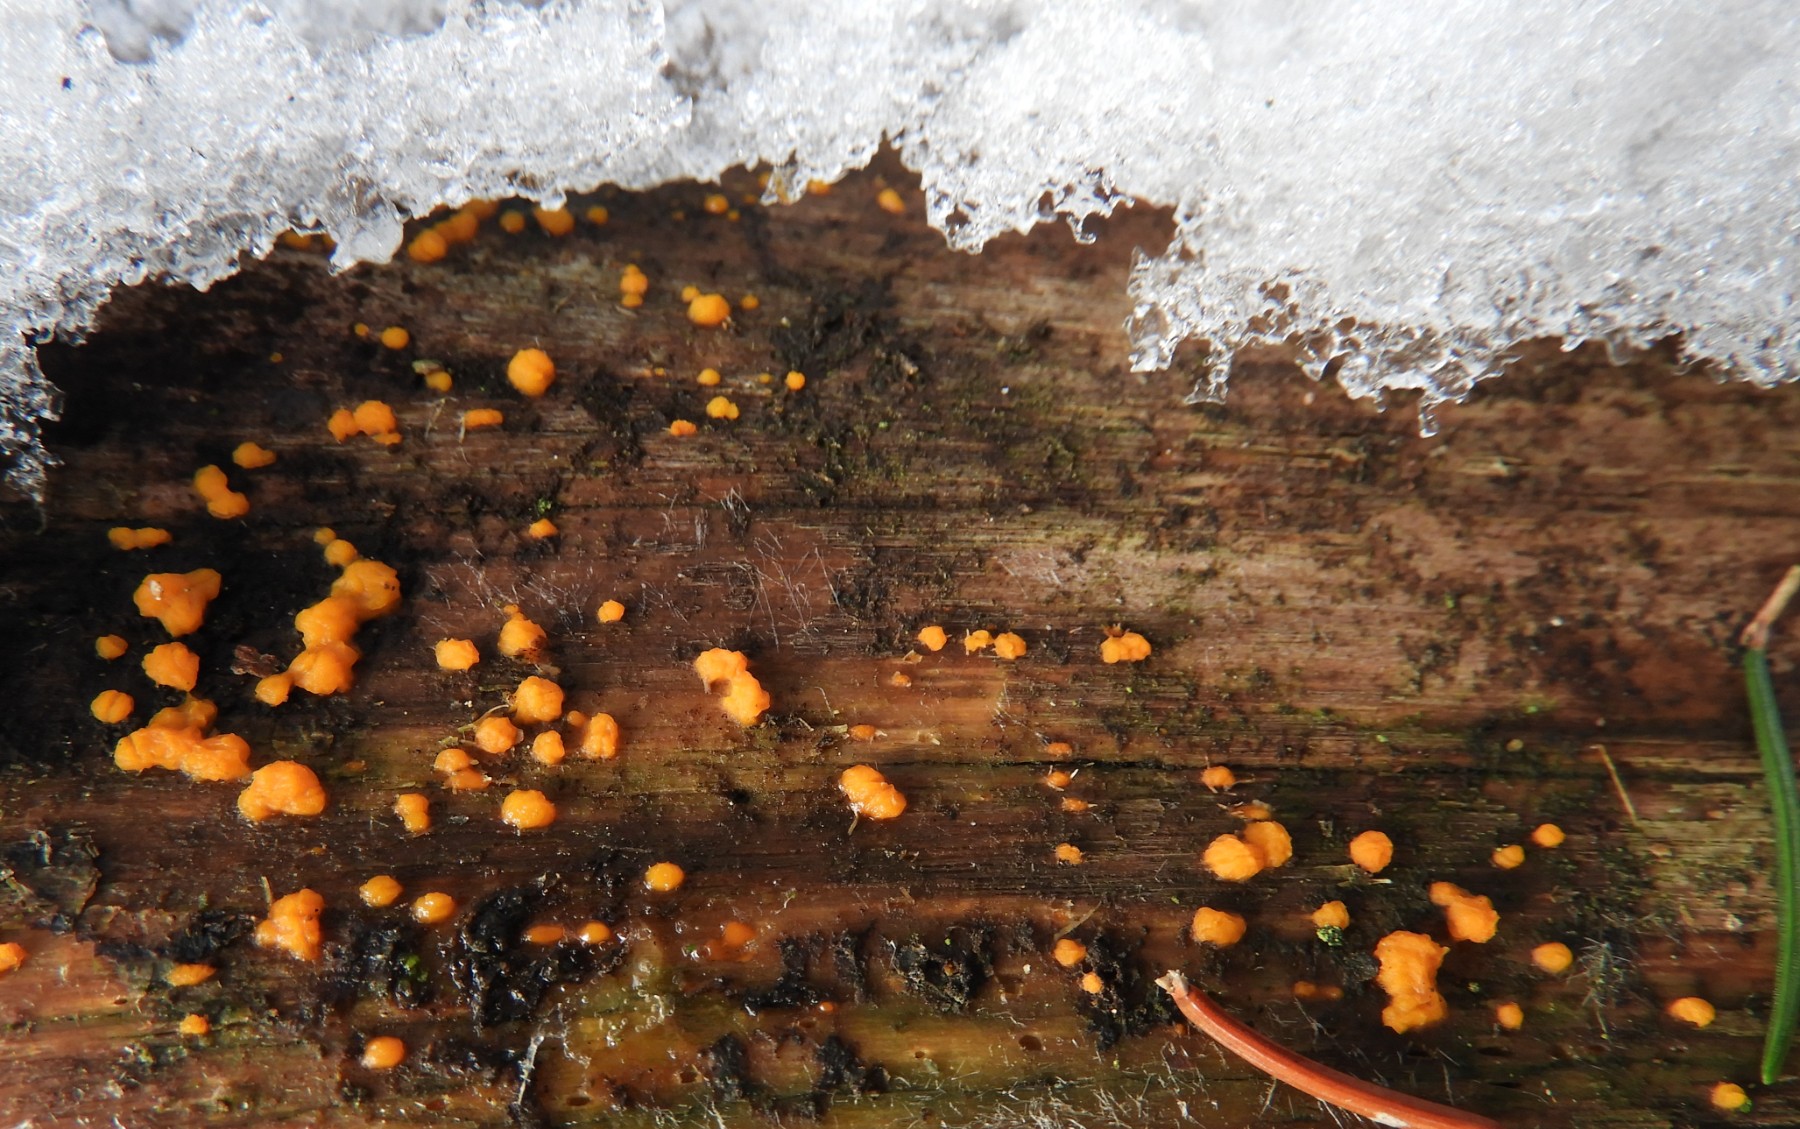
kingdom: Fungi
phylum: Basidiomycota
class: Dacrymycetes
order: Dacrymycetales
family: Dacrymycetaceae
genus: Dacrymyces
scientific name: Dacrymyces stillatus
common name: almindelig tåresvamp
